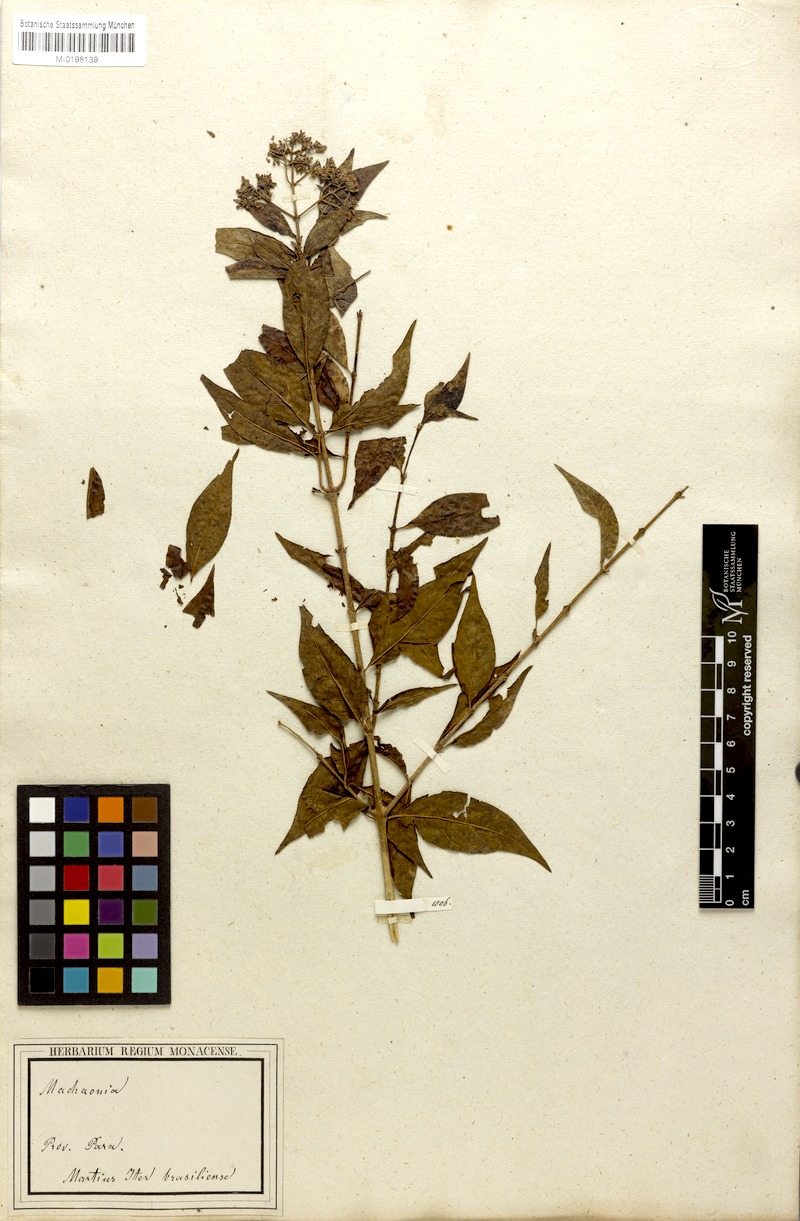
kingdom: Plantae
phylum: Tracheophyta
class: Magnoliopsida
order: Gentianales
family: Rubiaceae
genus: Machaonia
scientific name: Machaonia brasiliensis
